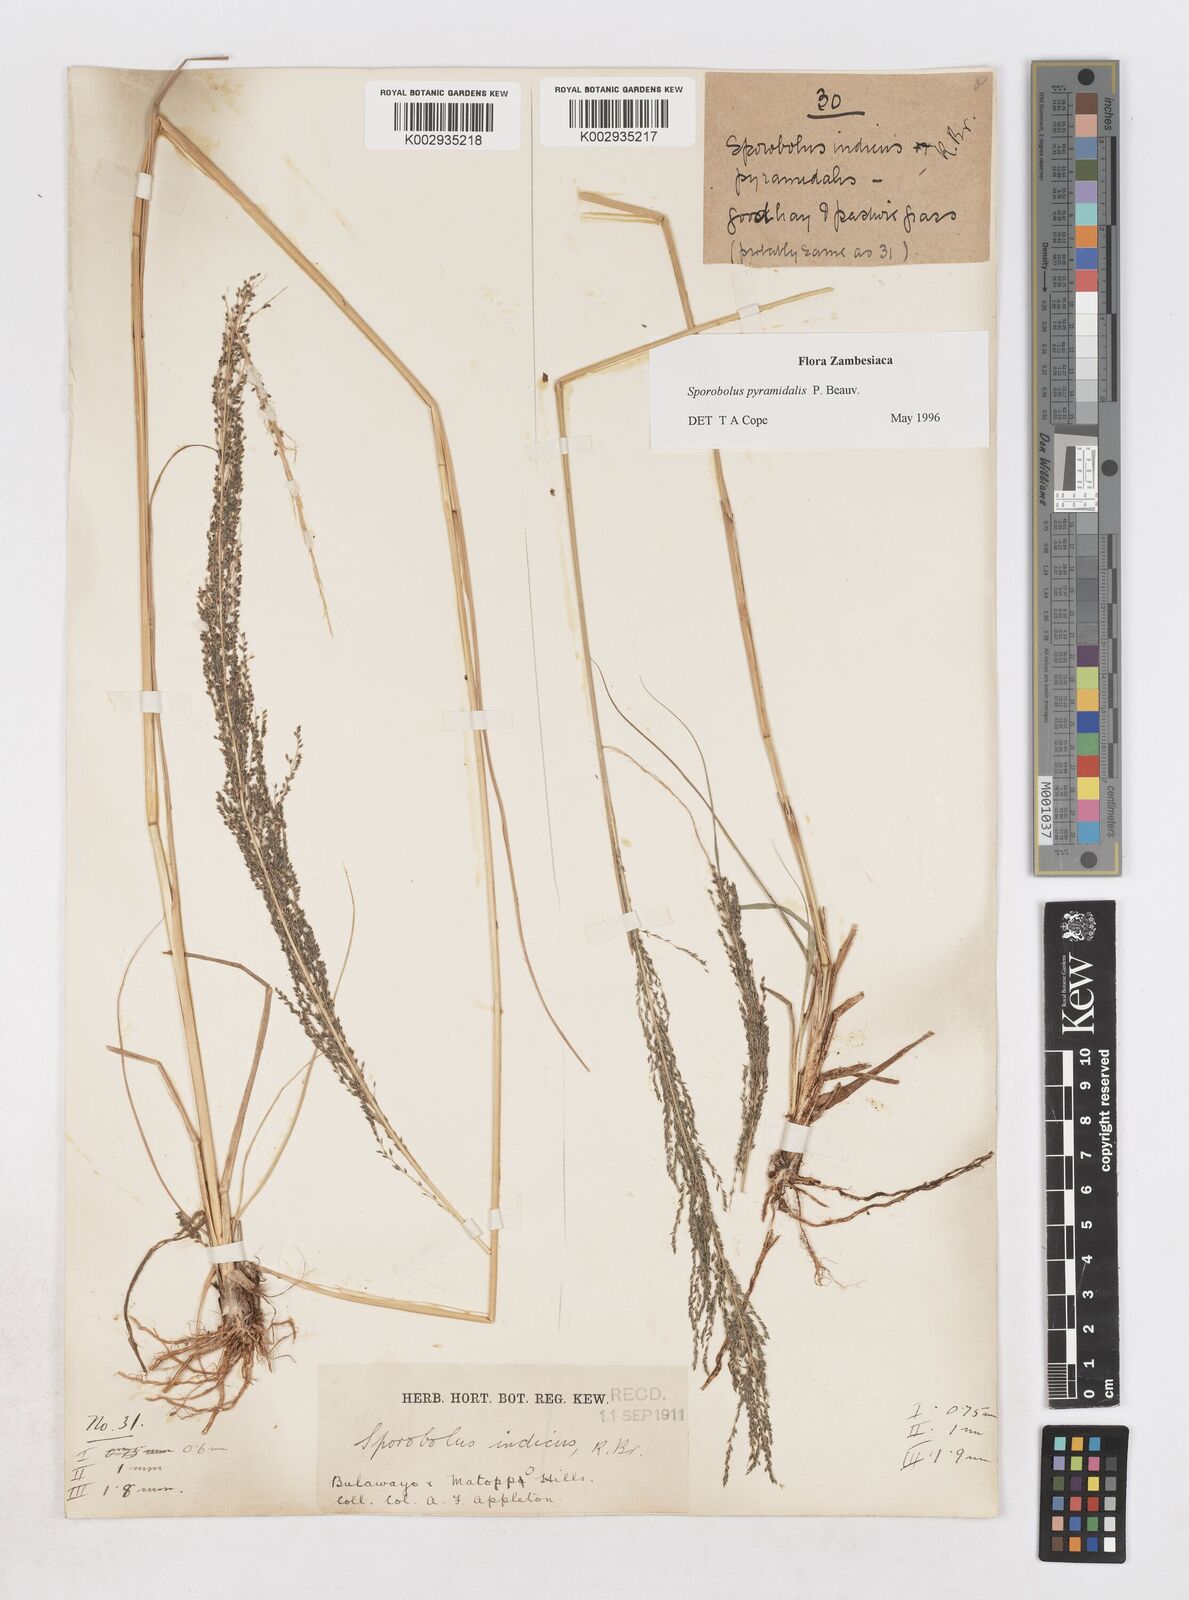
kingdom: Plantae
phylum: Tracheophyta
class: Liliopsida
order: Poales
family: Poaceae
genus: Sporobolus
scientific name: Sporobolus pyramidalis
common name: West indian dropseed
